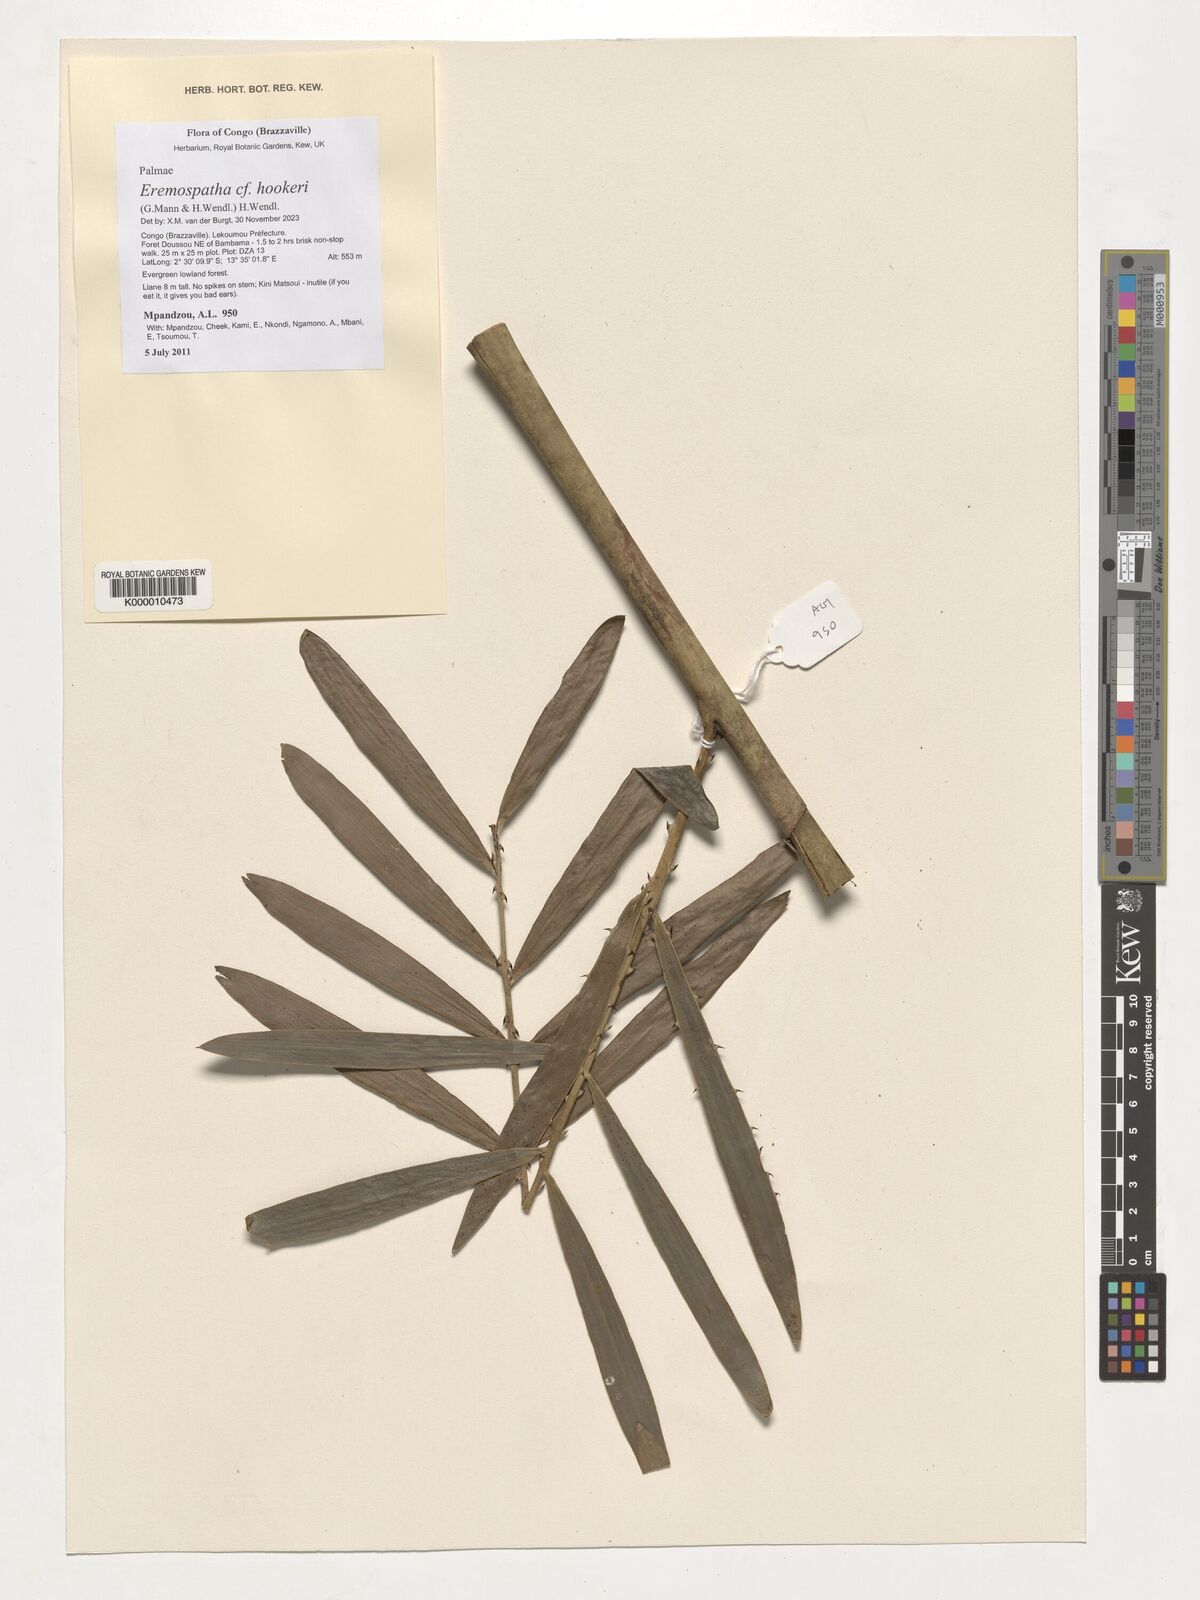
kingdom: Plantae
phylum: Tracheophyta
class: Liliopsida
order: Arecales
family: Arecaceae
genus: Eremospatha
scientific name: Eremospatha hookeri
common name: Rattan
